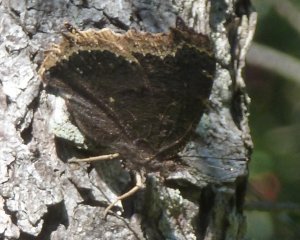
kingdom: Animalia
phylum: Arthropoda
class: Insecta
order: Lepidoptera
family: Nymphalidae
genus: Nymphalis
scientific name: Nymphalis antiopa
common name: Mourning Cloak
